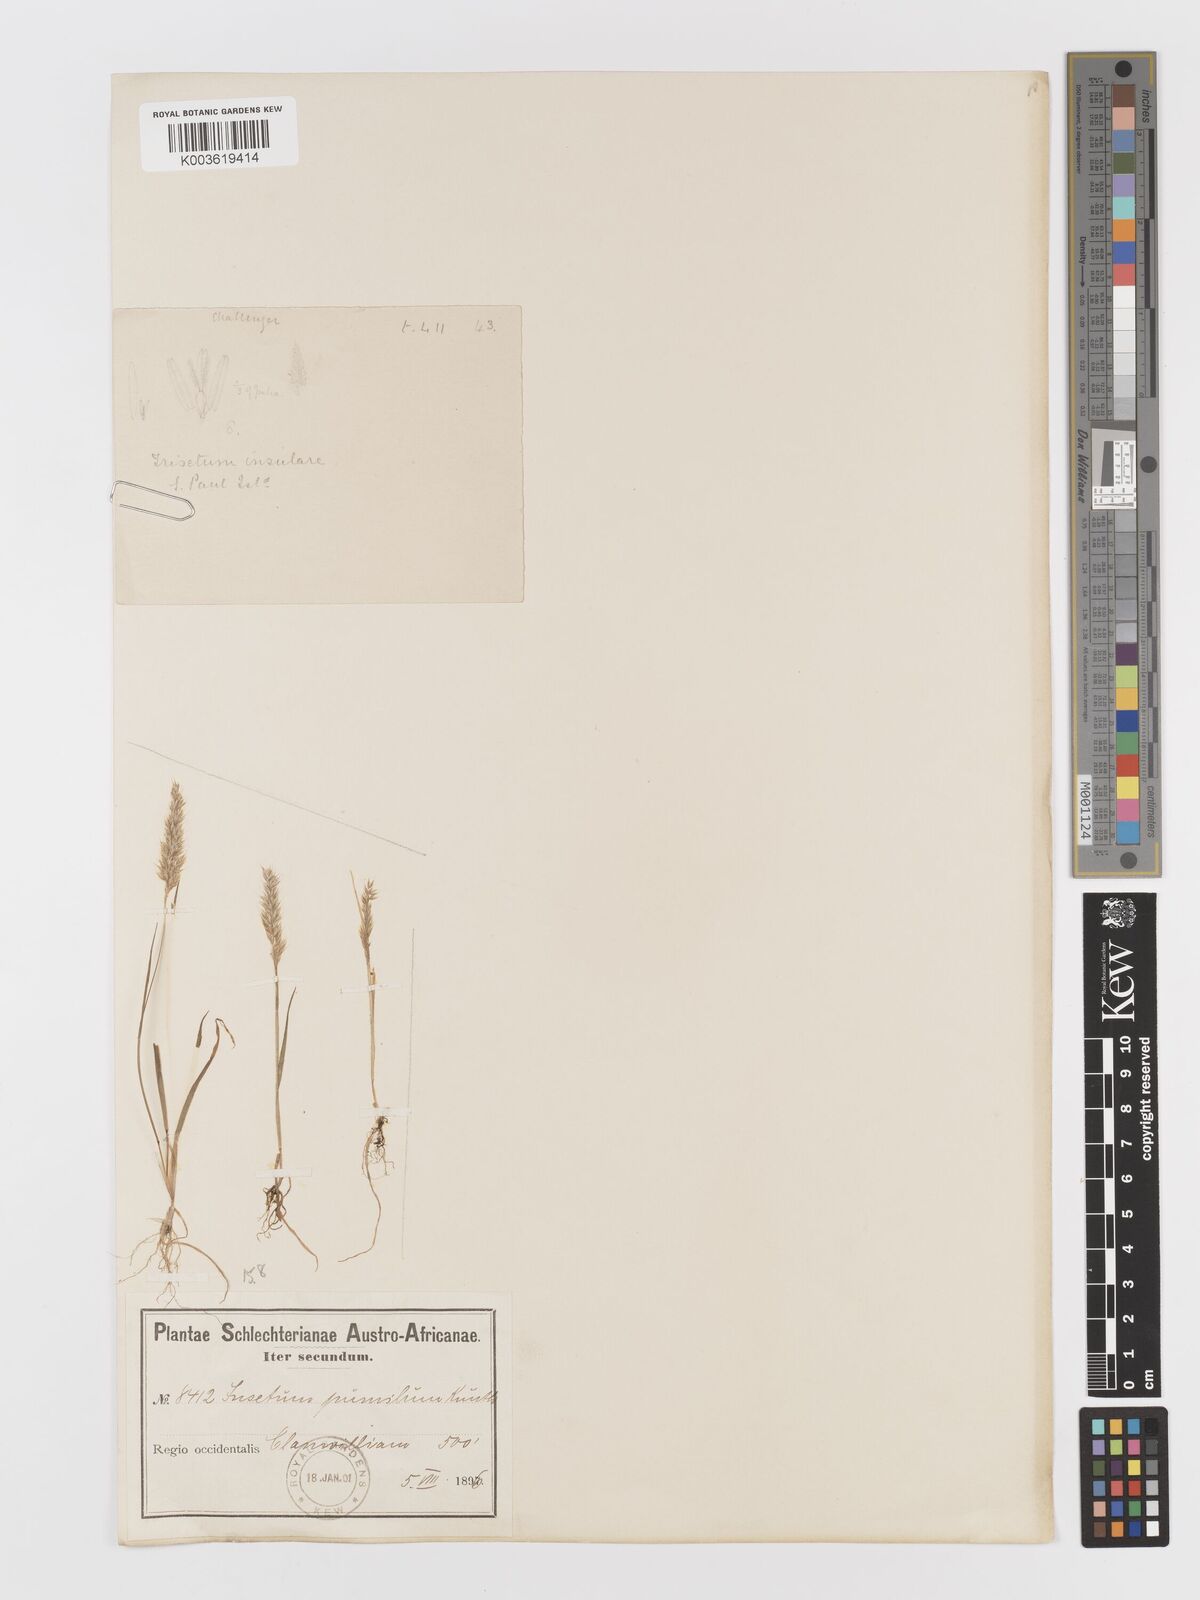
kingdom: Plantae
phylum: Tracheophyta
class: Liliopsida
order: Poales
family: Poaceae
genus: Rostraria
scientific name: Rostraria
